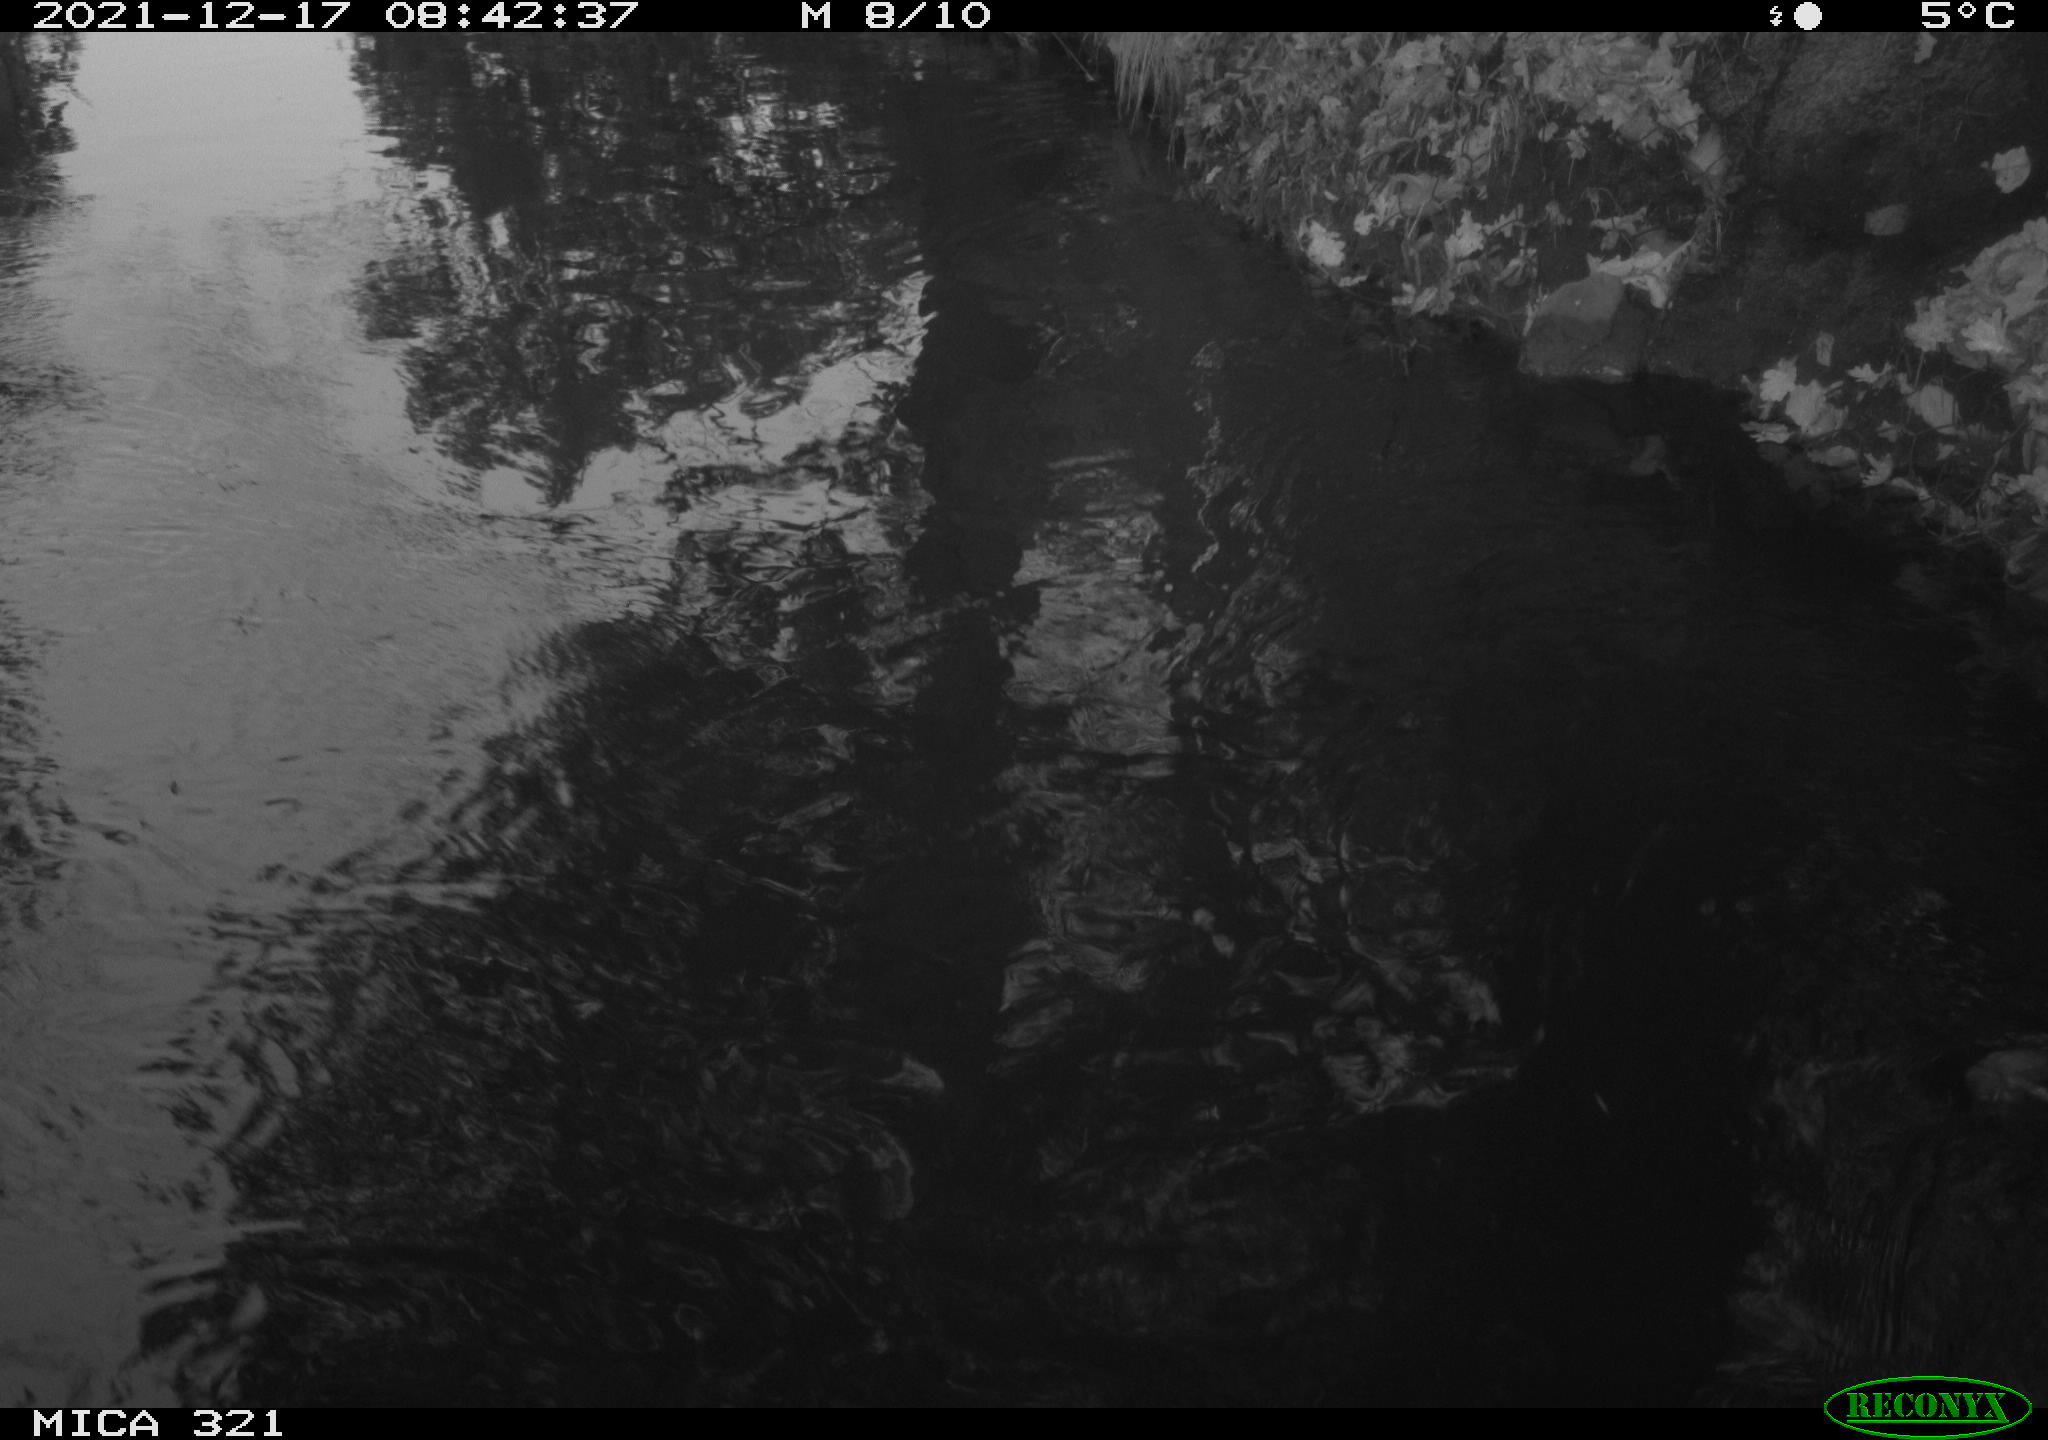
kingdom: Animalia
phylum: Chordata
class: Aves
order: Suliformes
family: Phalacrocoracidae
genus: Phalacrocorax
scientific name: Phalacrocorax carbo
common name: Great cormorant
